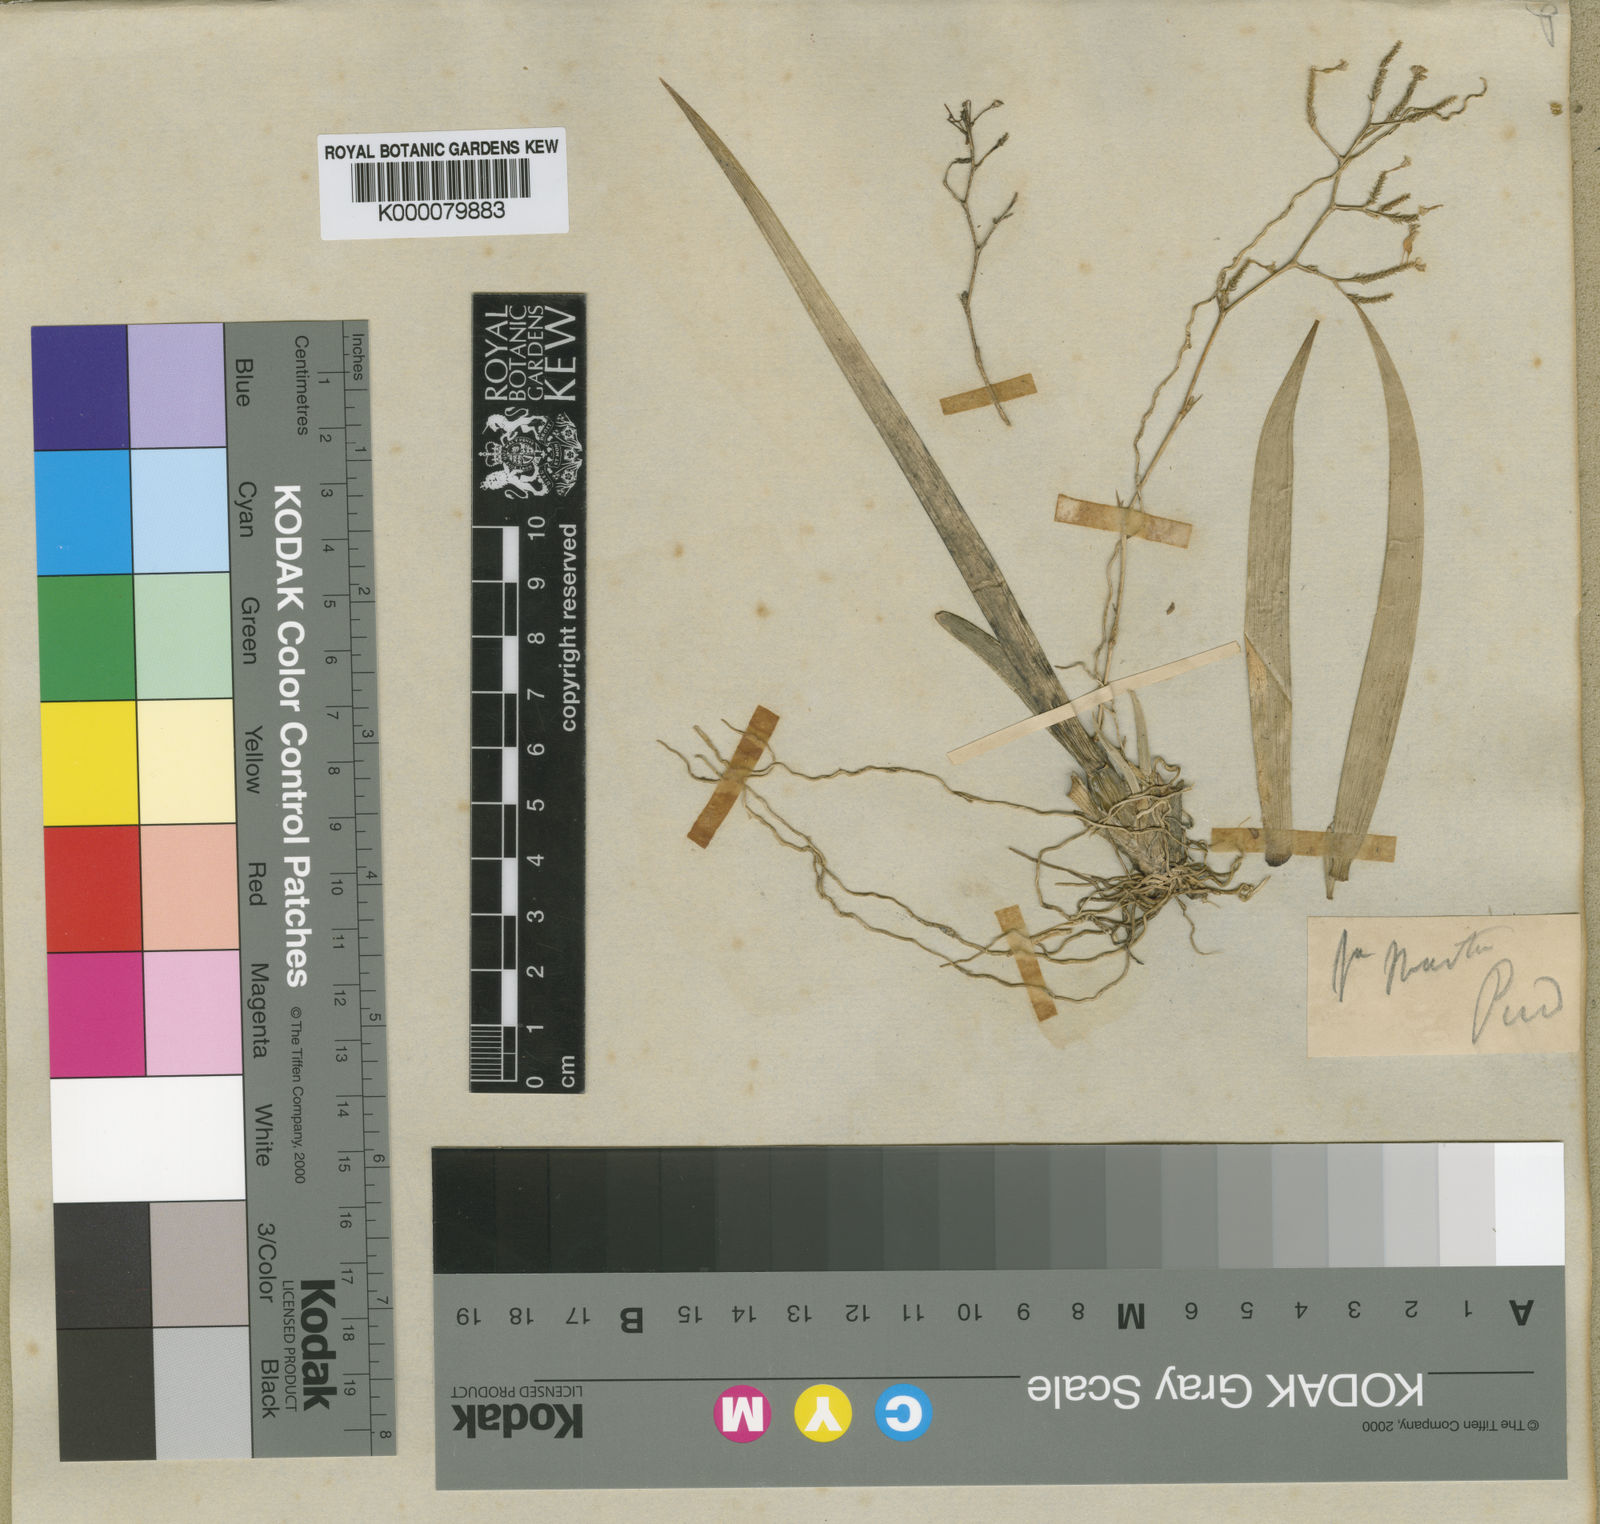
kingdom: Plantae
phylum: Tracheophyta
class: Liliopsida
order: Asparagales
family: Orchidaceae
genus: Trizeuxis
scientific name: Trizeuxis falcata
